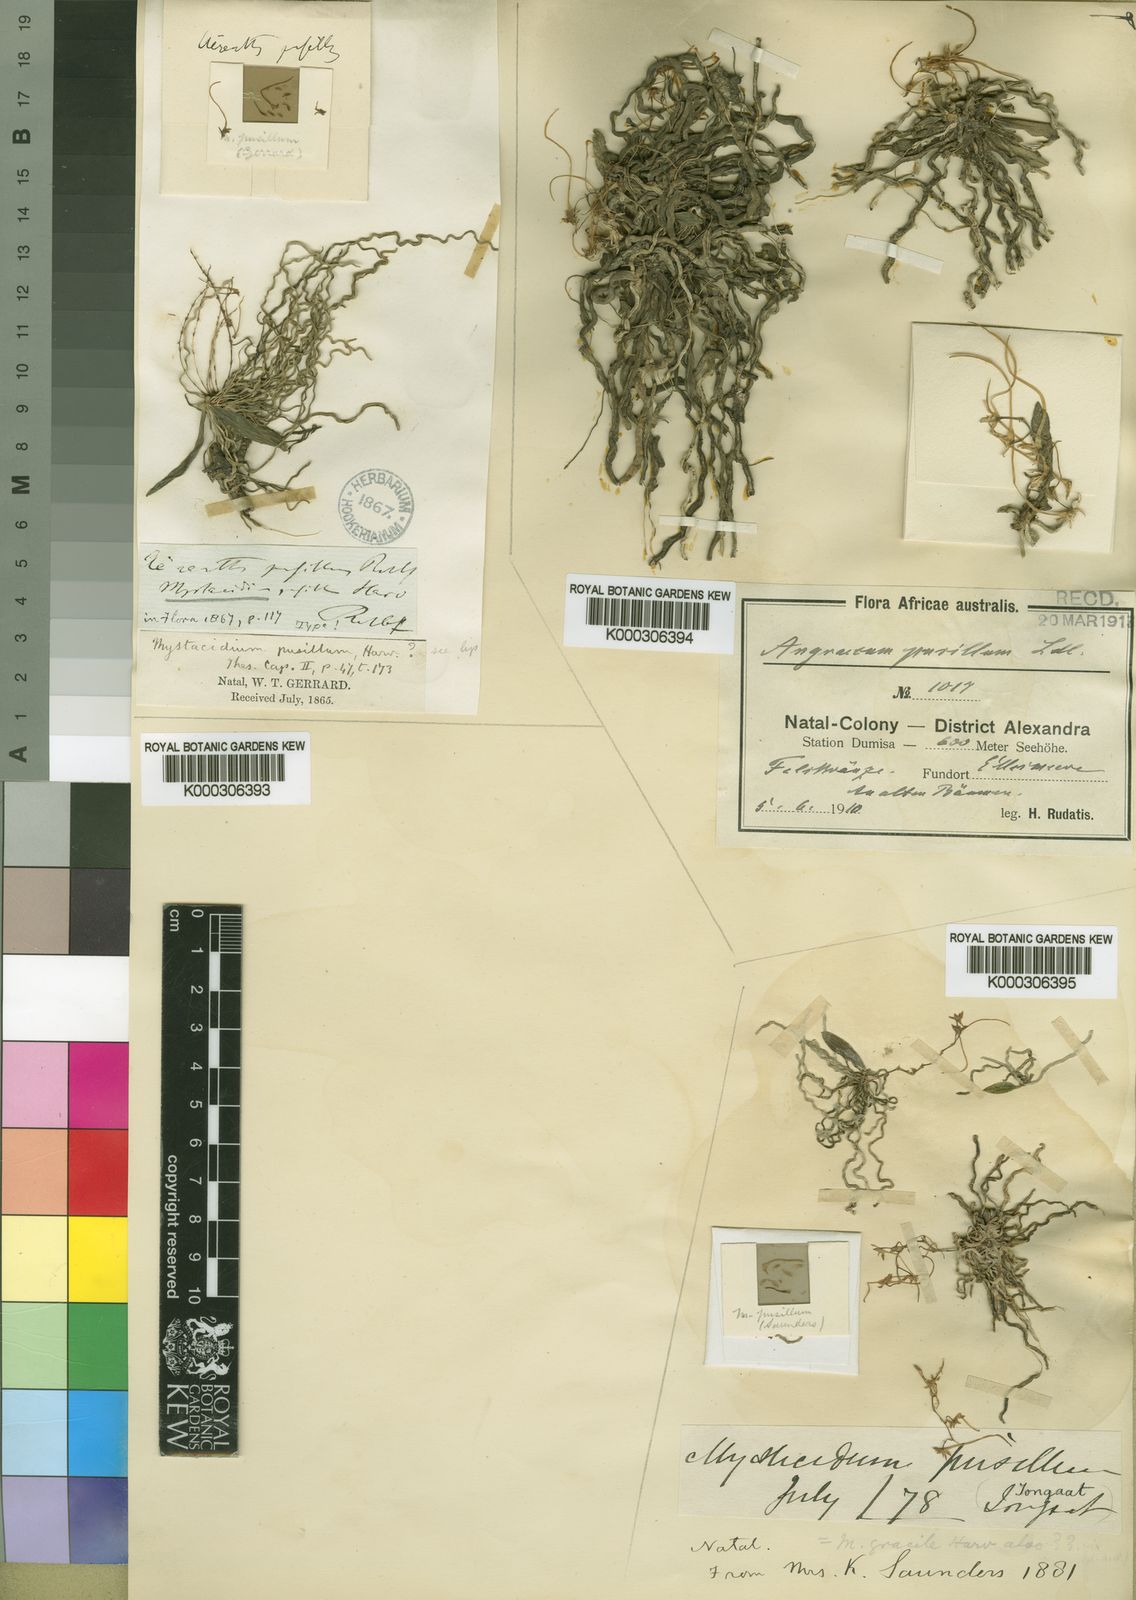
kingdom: Plantae
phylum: Tracheophyta
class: Liliopsida
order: Asparagales
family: Orchidaceae
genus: Mystacidium
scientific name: Mystacidium pusillum
